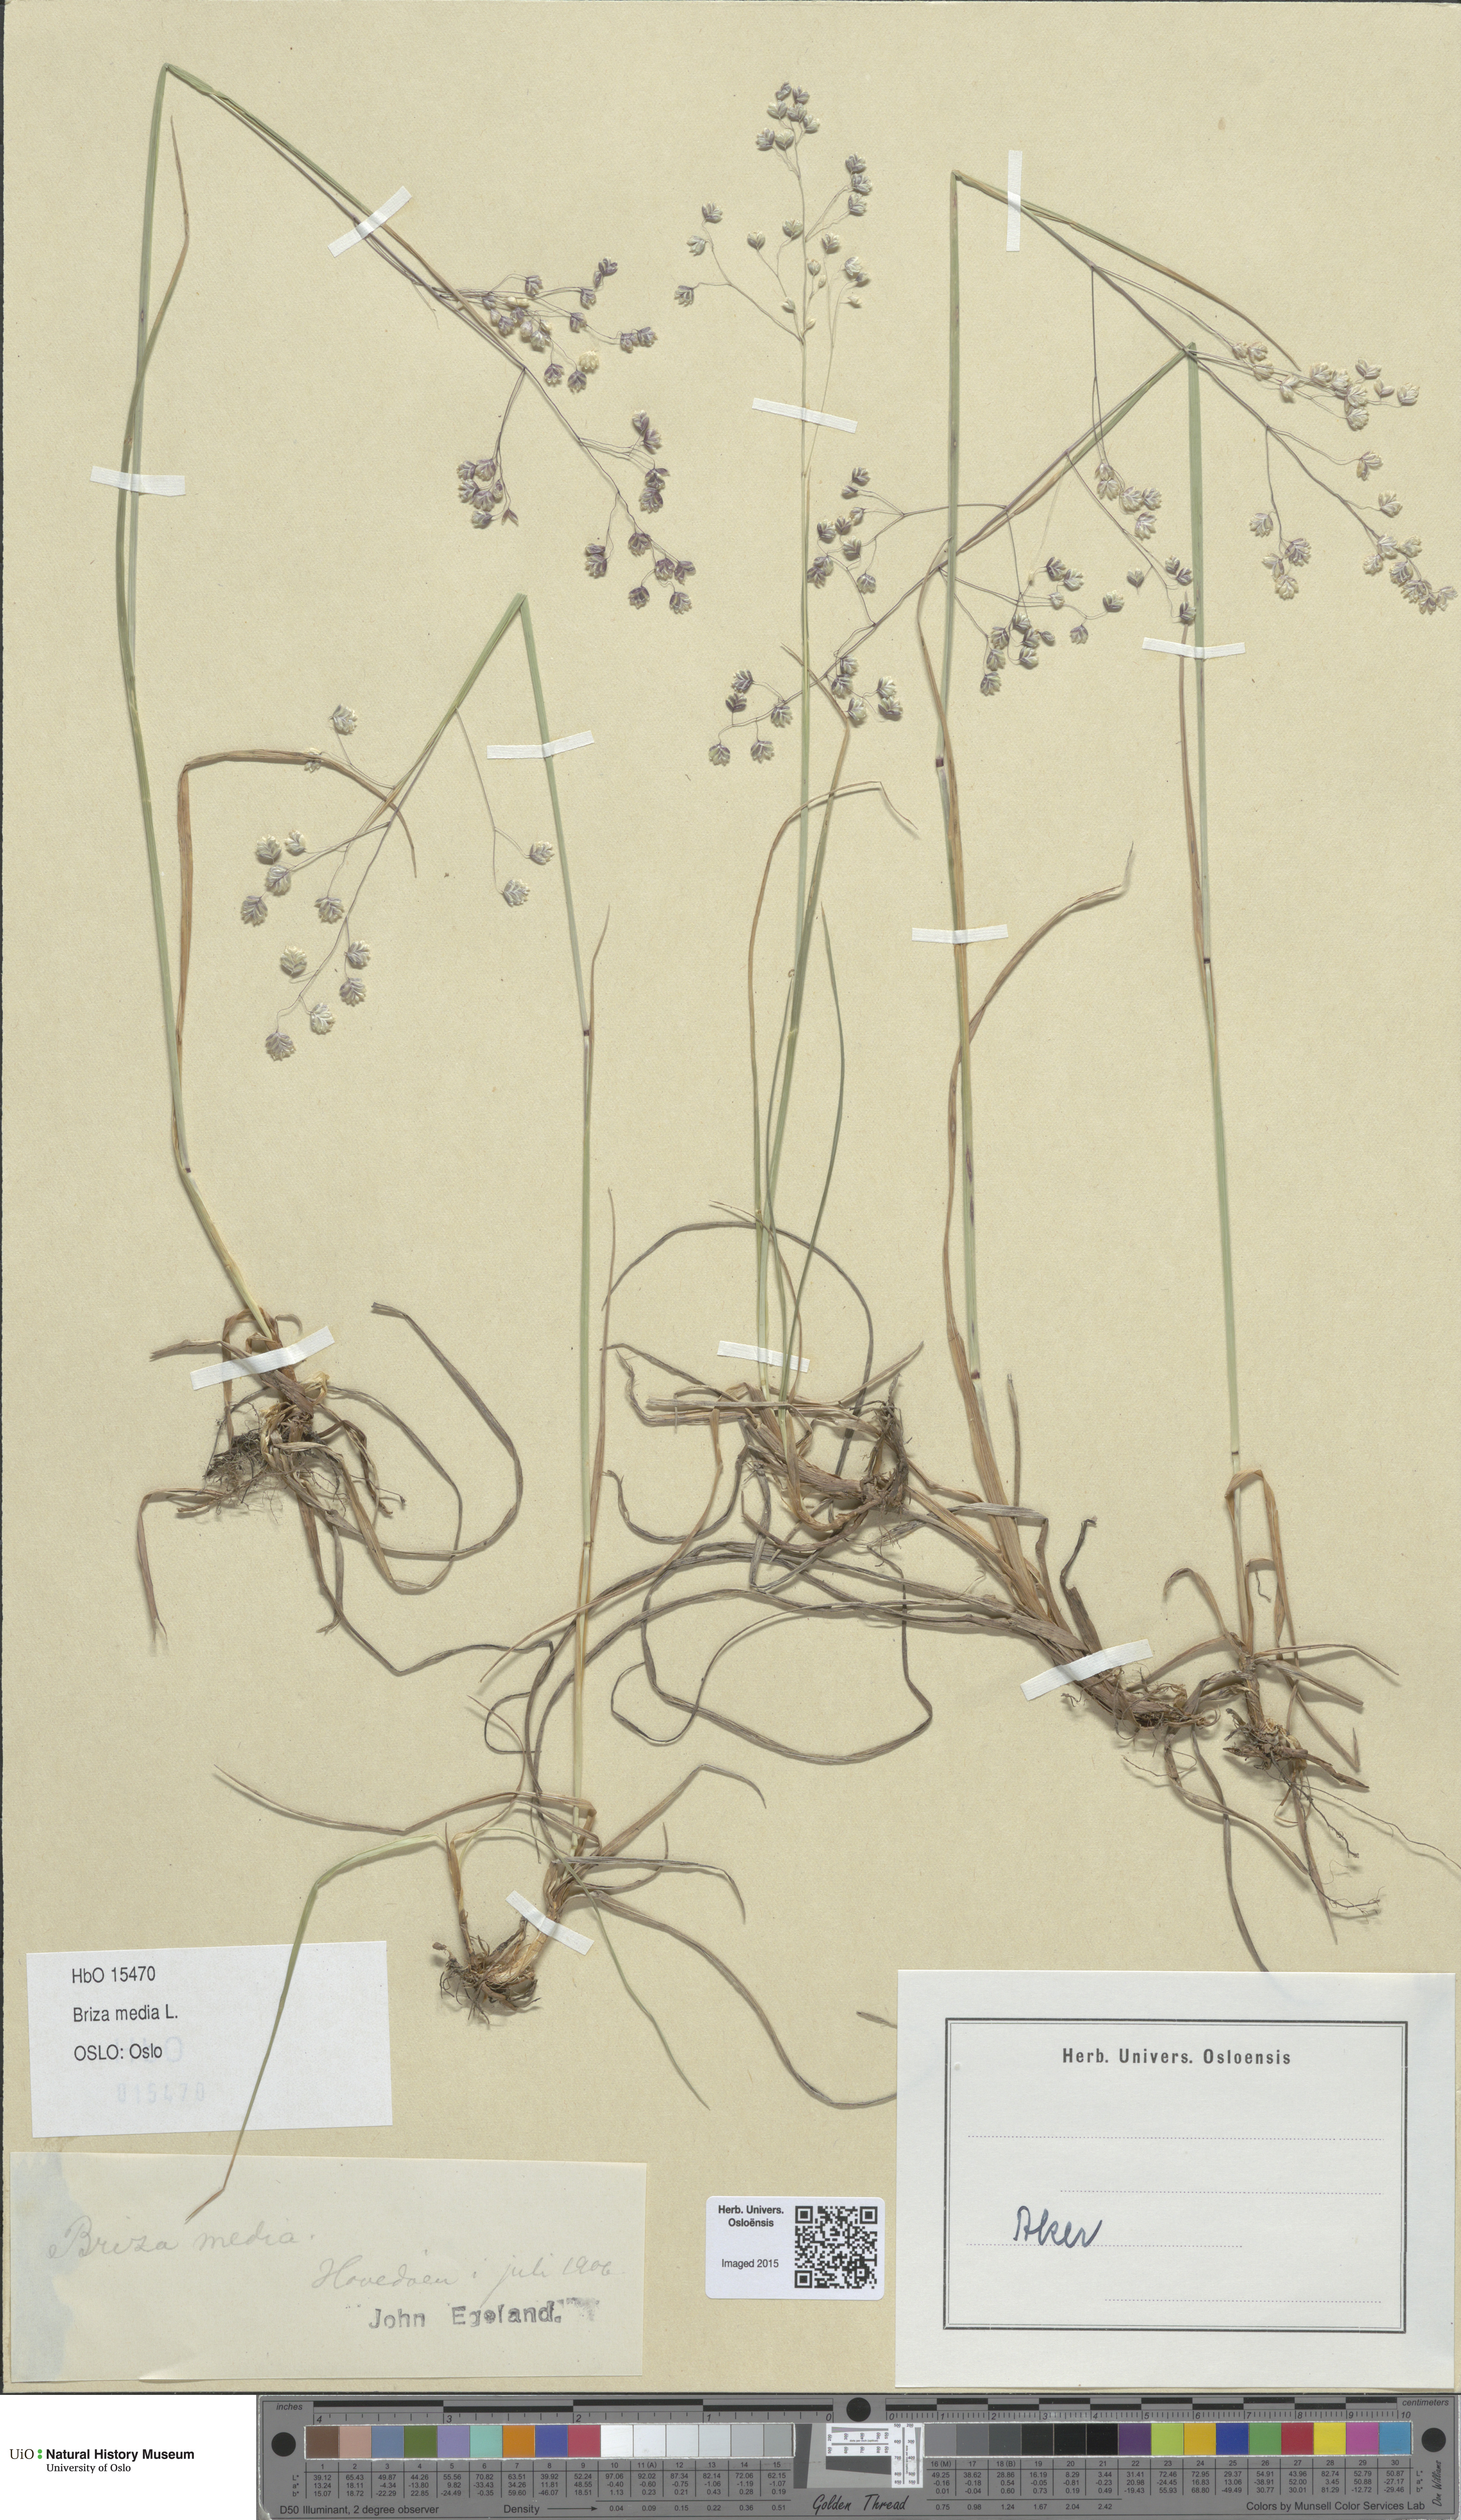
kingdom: Plantae
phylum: Tracheophyta
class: Liliopsida
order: Poales
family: Poaceae
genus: Briza
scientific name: Briza media
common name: Quaking grass
